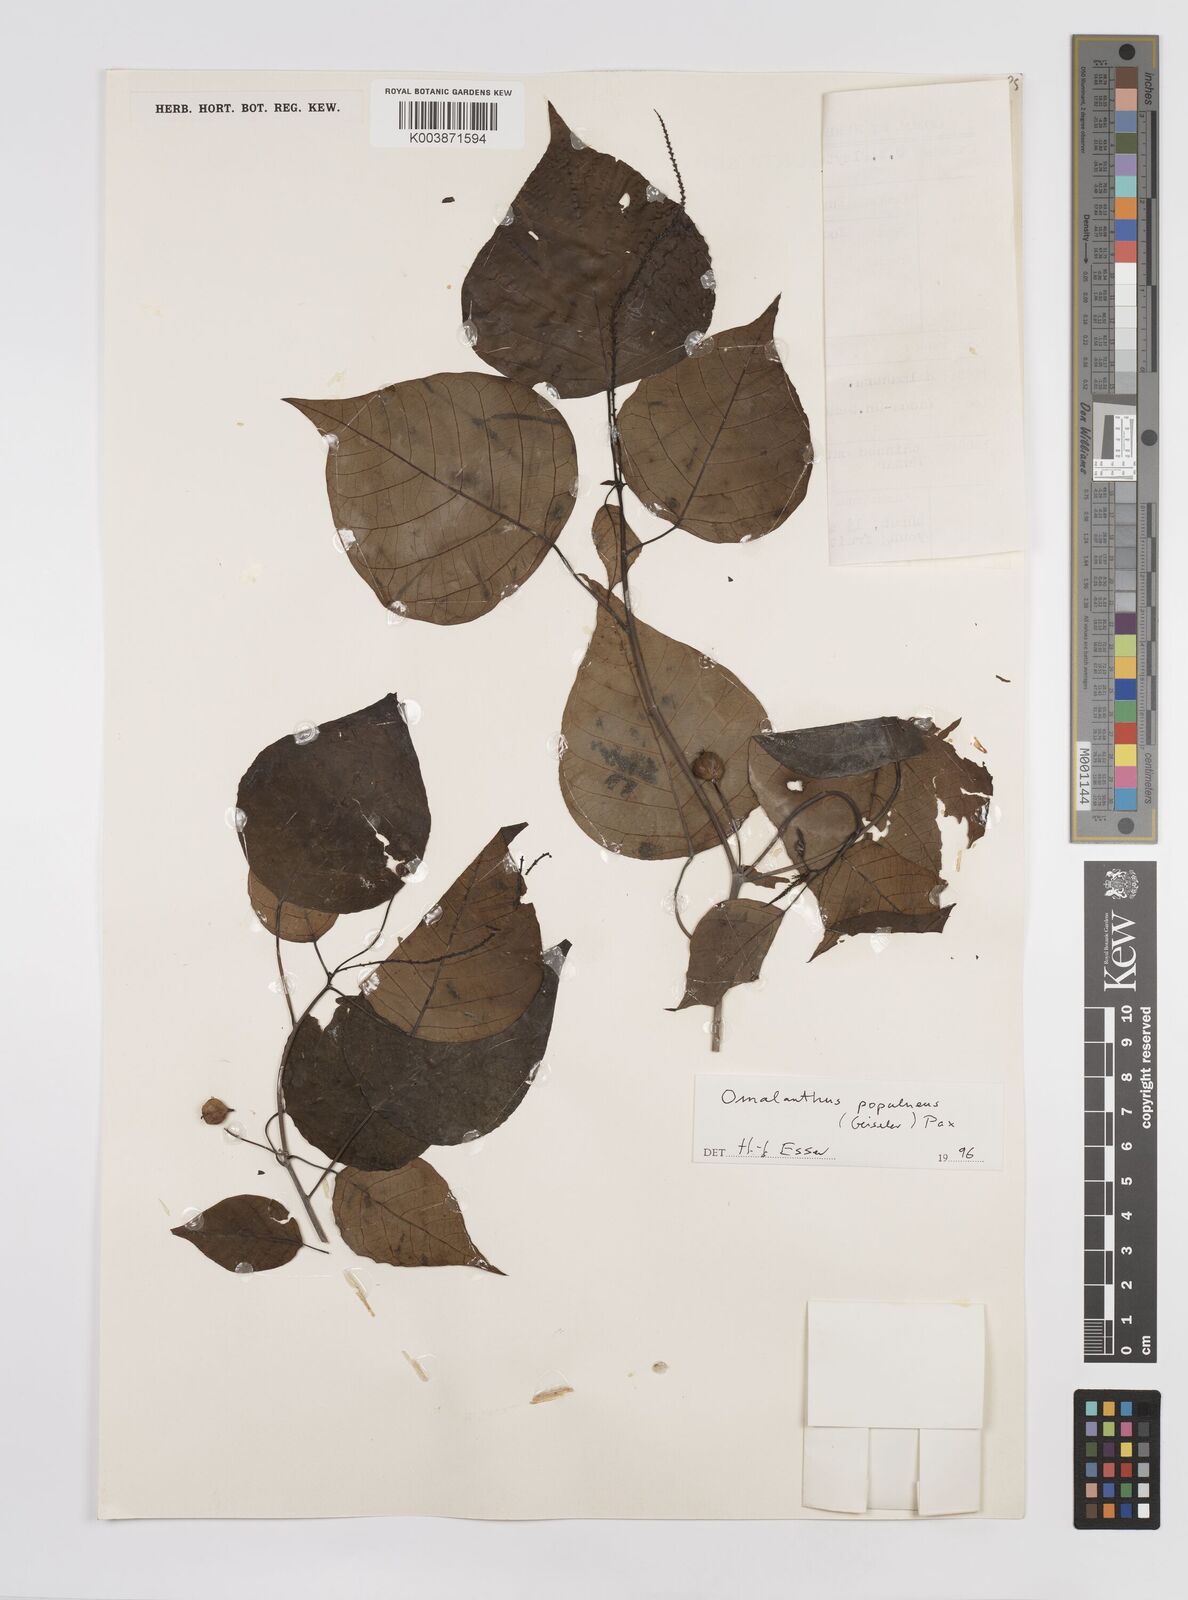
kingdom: Plantae
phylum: Tracheophyta
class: Magnoliopsida
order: Malpighiales
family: Euphorbiaceae
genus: Homalanthus
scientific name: Homalanthus populneus
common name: Spurge
